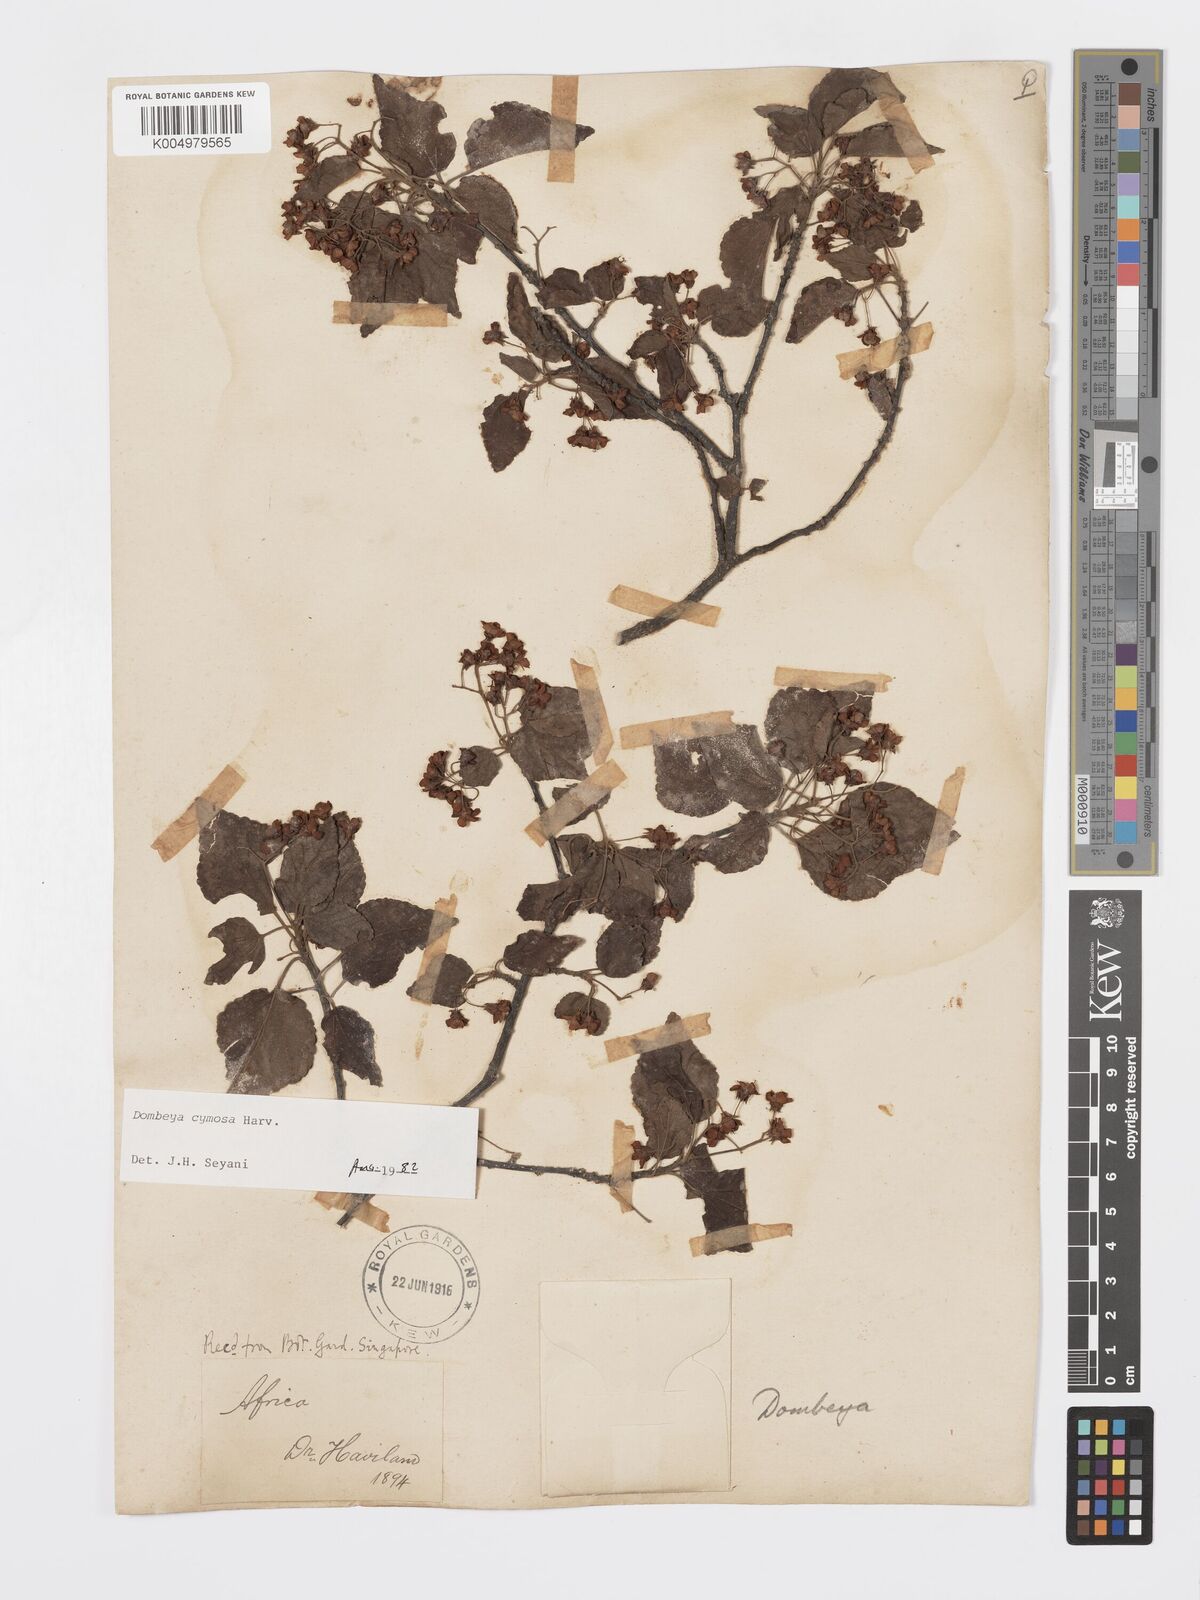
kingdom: Plantae
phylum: Tracheophyta
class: Magnoliopsida
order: Malvales
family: Malvaceae
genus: Dombeya
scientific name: Dombeya cymosa
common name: Hairless dombeya
